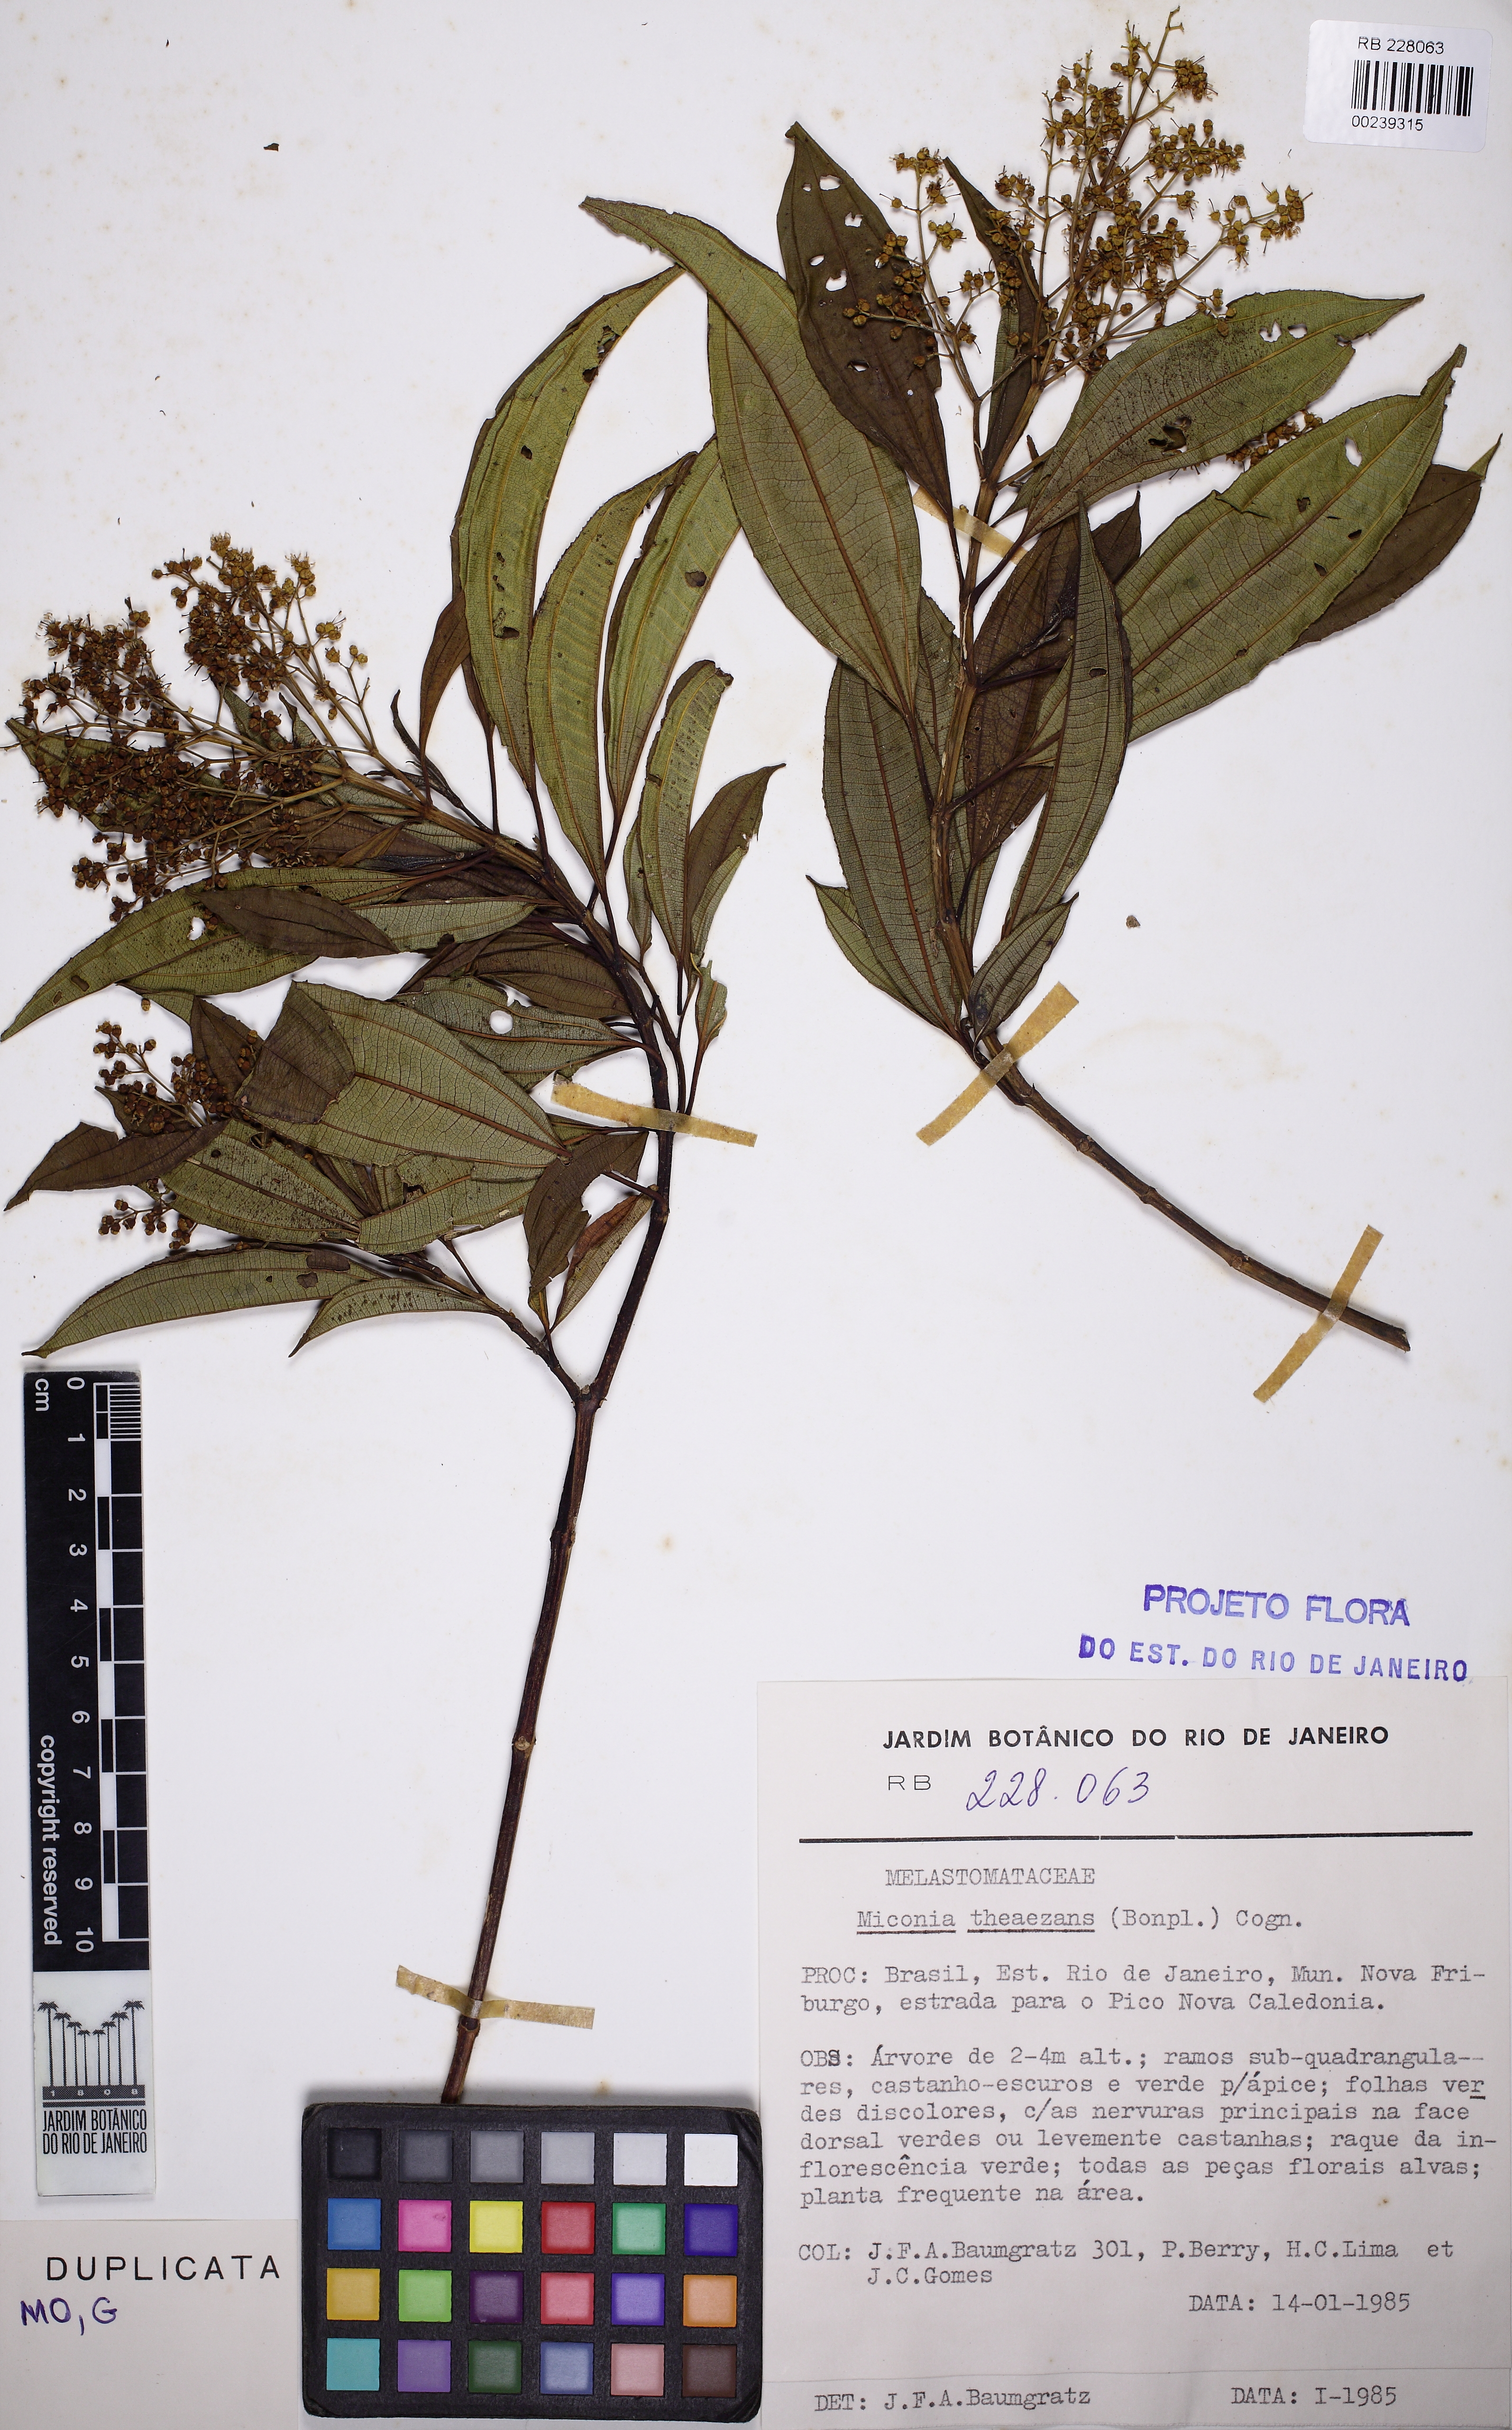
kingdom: Plantae
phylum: Tracheophyta
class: Magnoliopsida
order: Myrtales
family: Melastomataceae
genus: Miconia
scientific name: Miconia theizans
